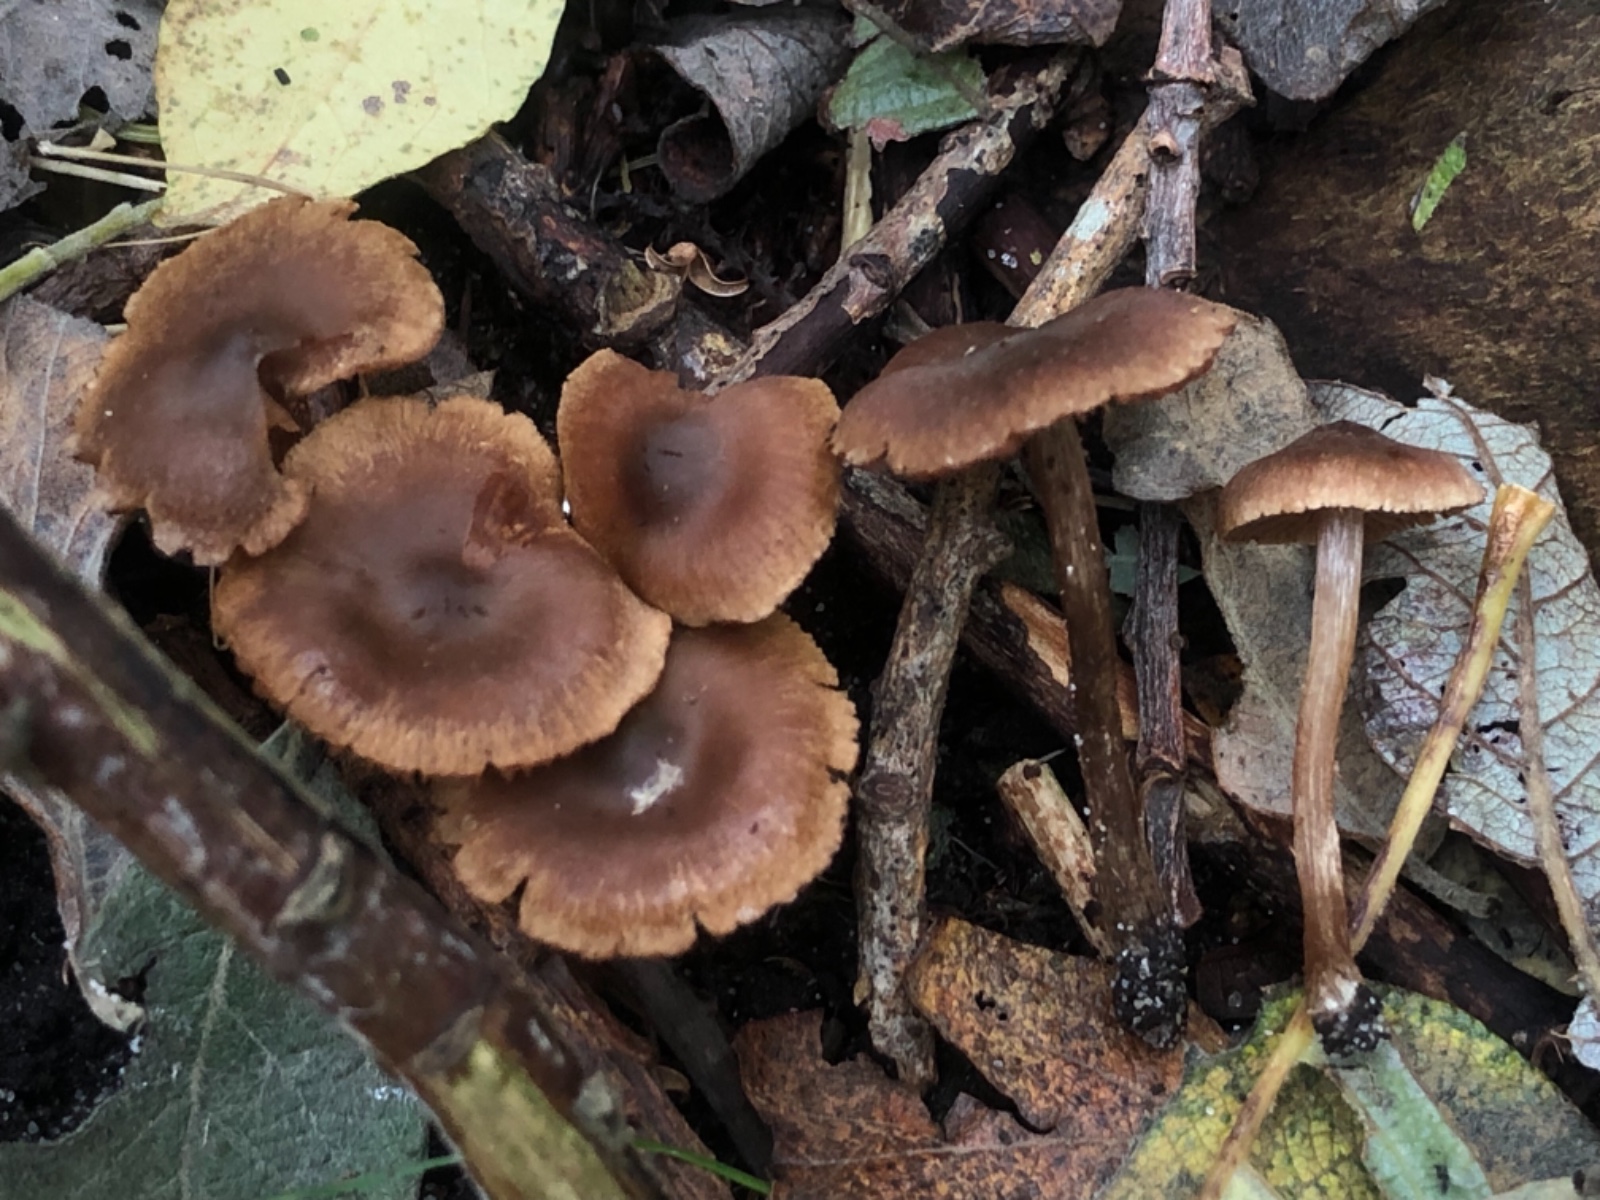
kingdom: Fungi
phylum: Basidiomycota
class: Agaricomycetes
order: Agaricales
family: Cortinariaceae
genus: Cortinarius
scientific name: Cortinarius desertorum
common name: skær slørhat
